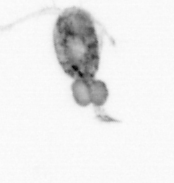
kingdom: Animalia
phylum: Arthropoda
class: Copepoda
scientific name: Copepoda
